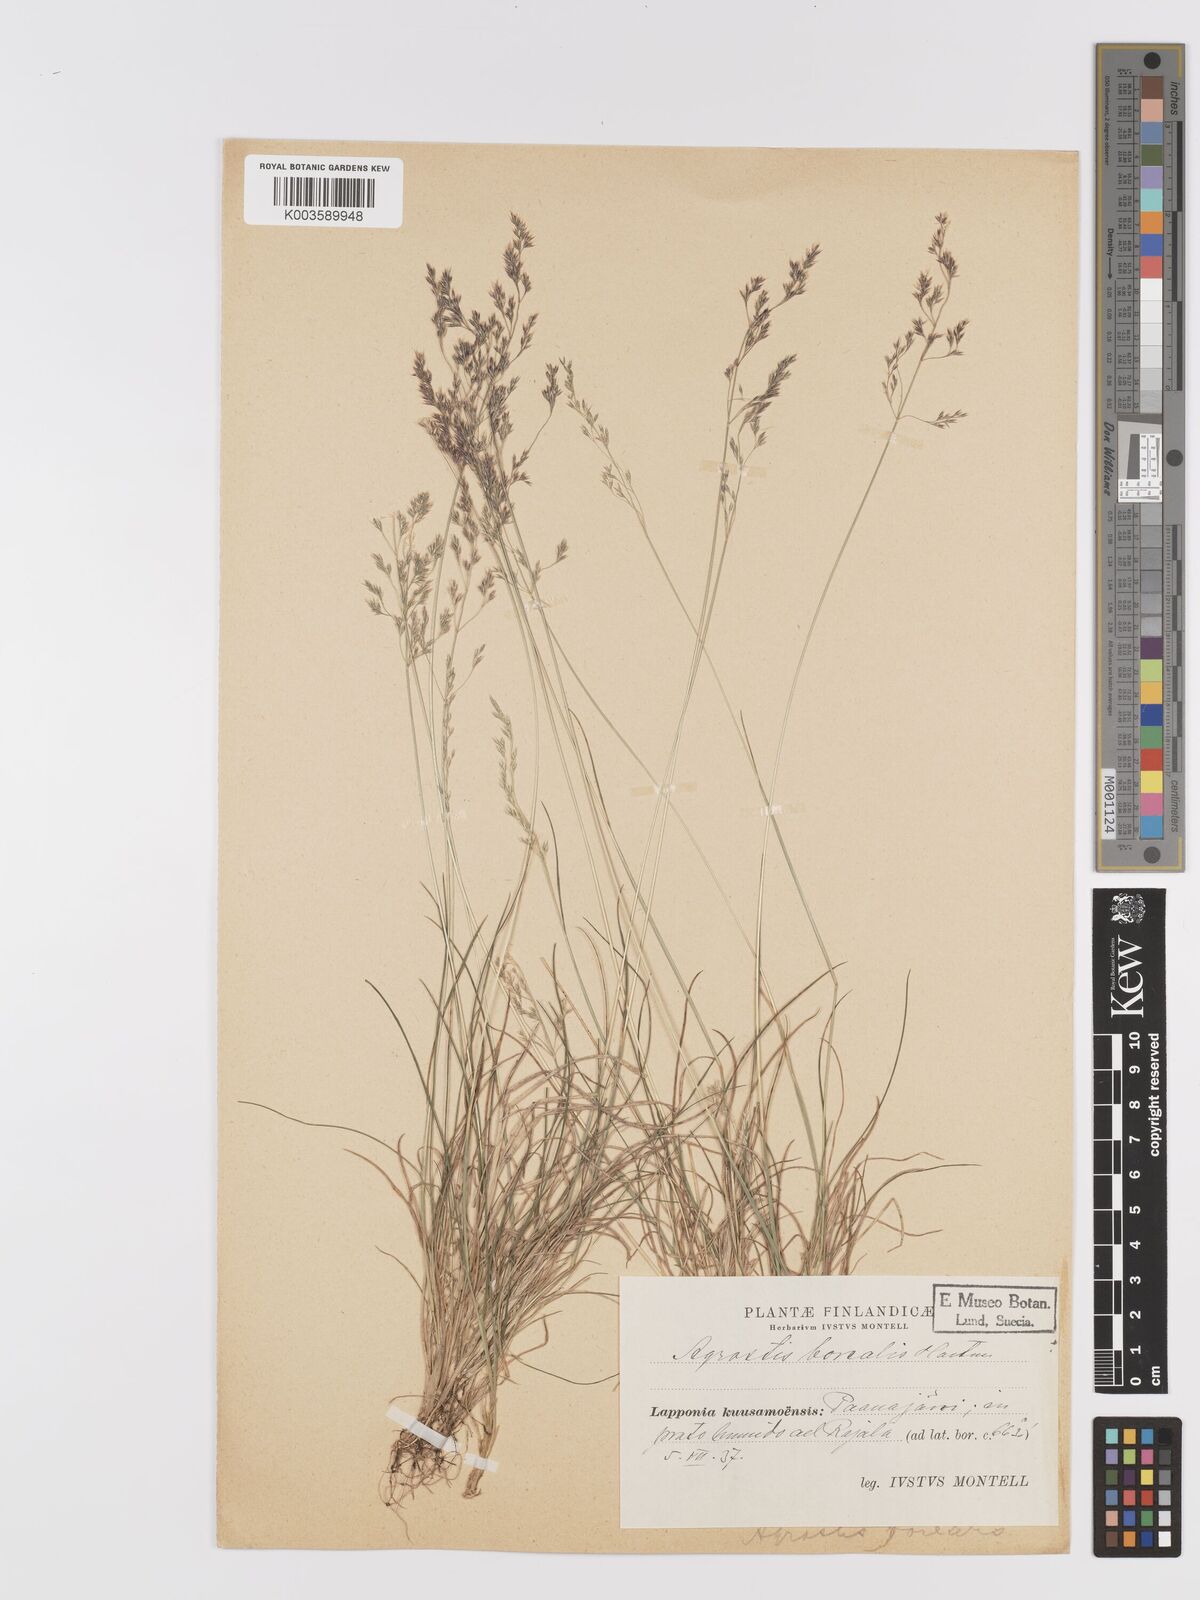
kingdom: Plantae
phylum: Tracheophyta
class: Liliopsida
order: Poales
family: Poaceae
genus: Agrostis
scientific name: Agrostis mertensii
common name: Northern bent
